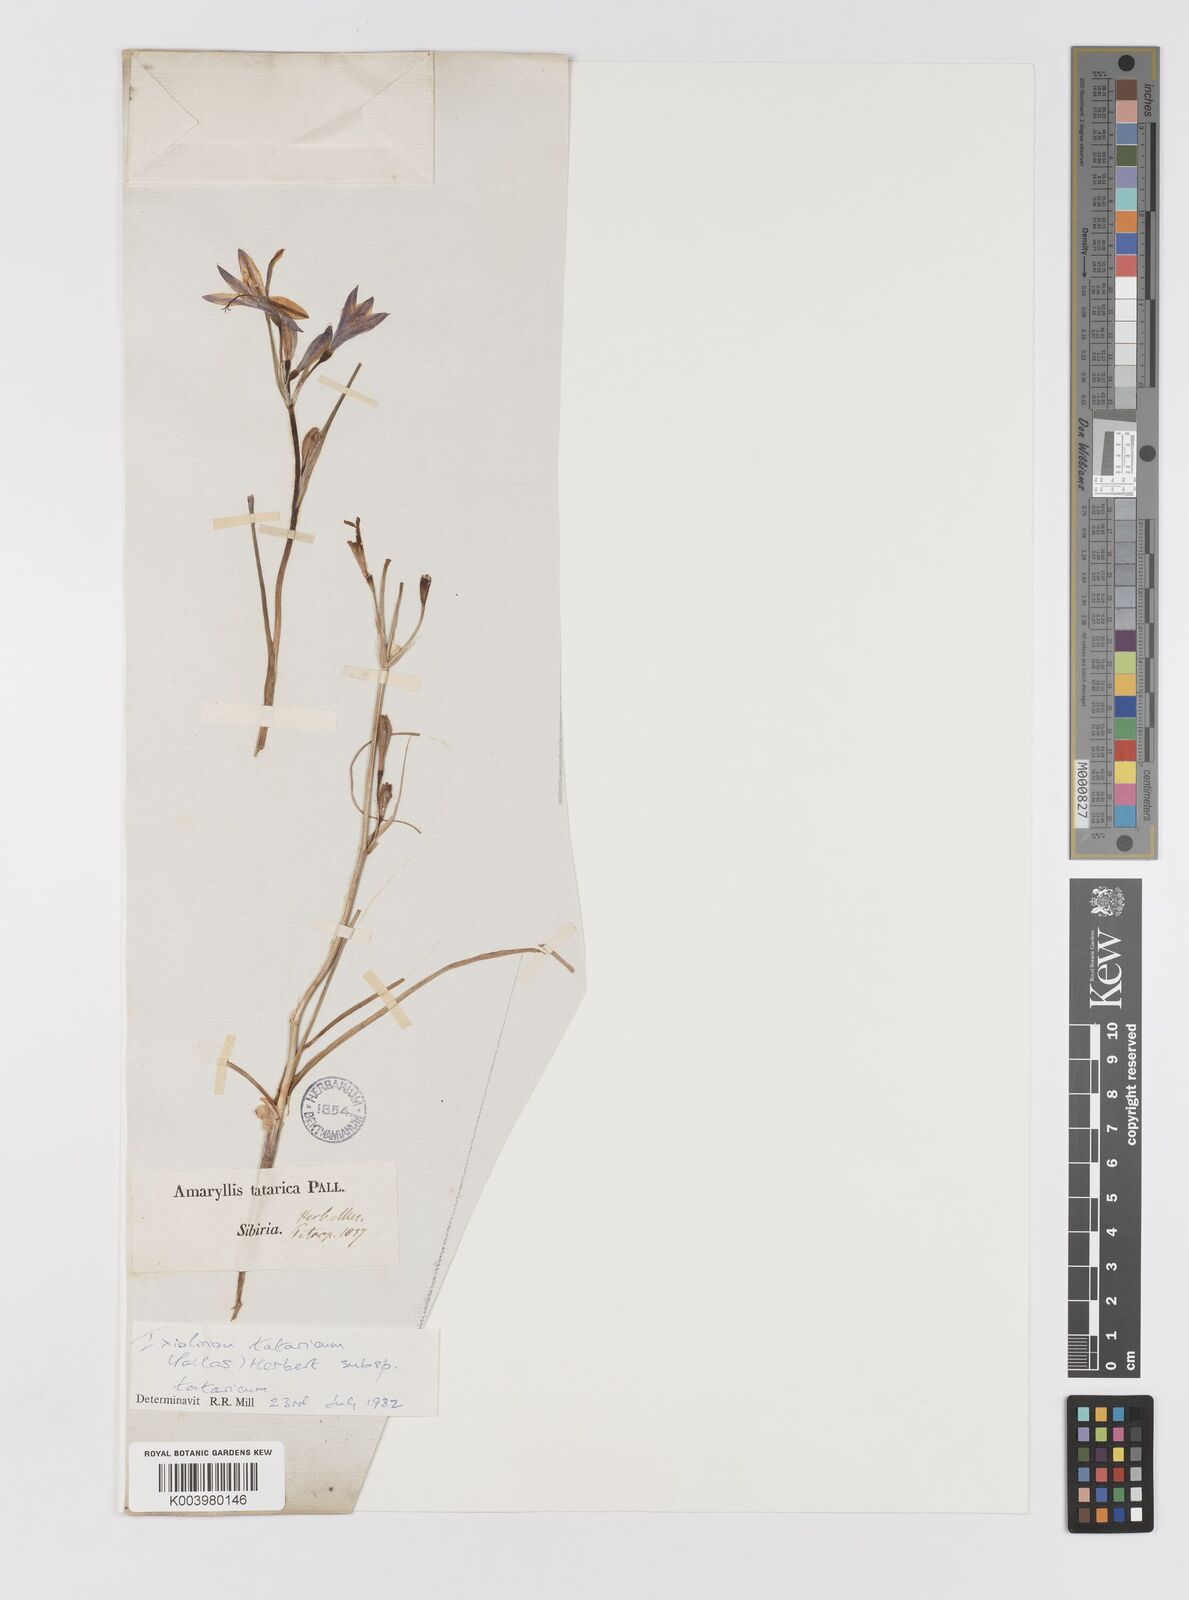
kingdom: Plantae
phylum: Tracheophyta
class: Liliopsida
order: Asparagales
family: Ixioliriaceae
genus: Ixiolirion
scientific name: Ixiolirion tataricum
